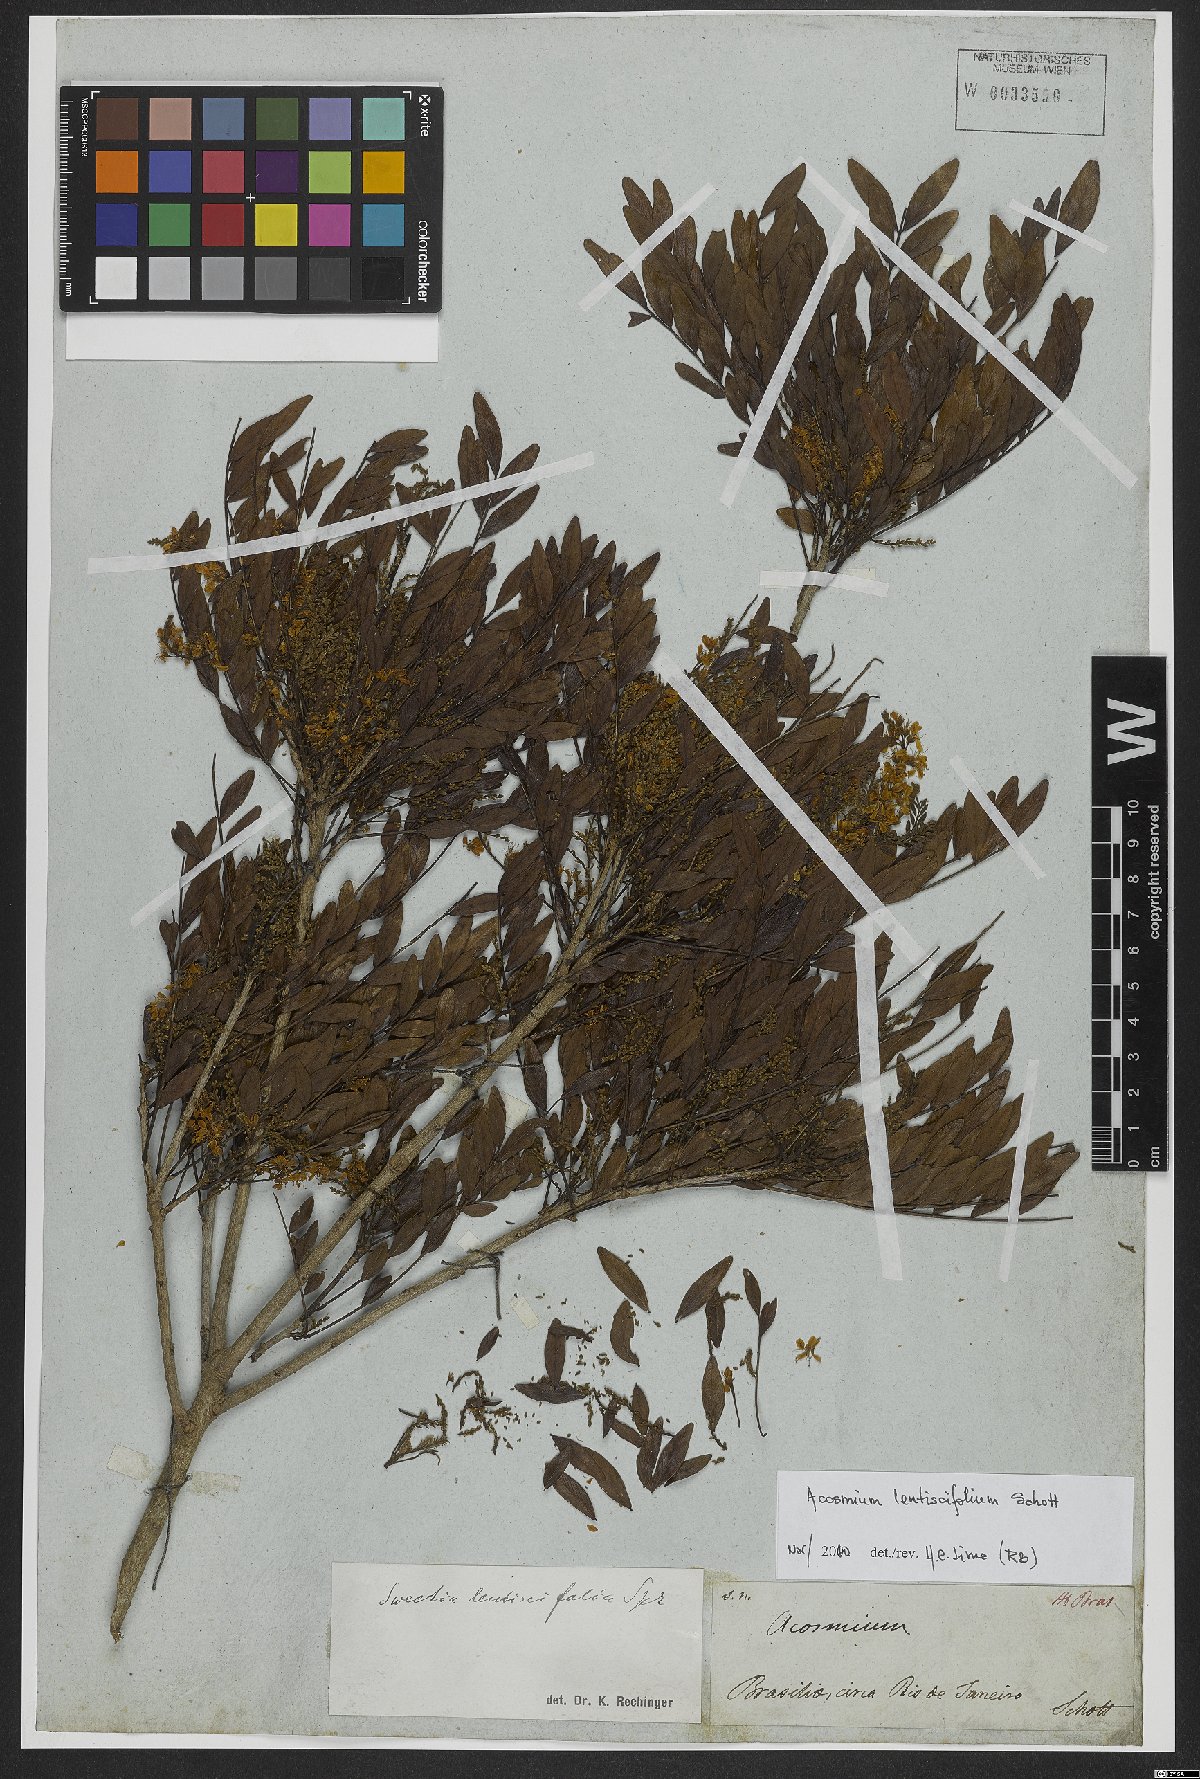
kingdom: Plantae
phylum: Tracheophyta
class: Magnoliopsida
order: Fabales
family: Fabaceae
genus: Acosmium
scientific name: Acosmium lentiscifolium
